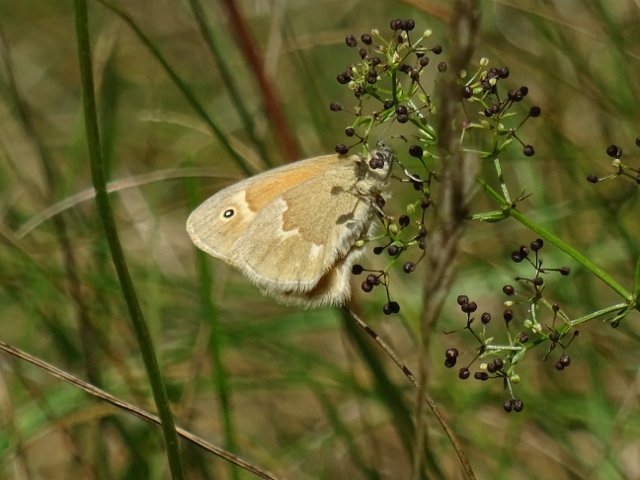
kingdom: Animalia
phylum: Arthropoda
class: Insecta
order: Lepidoptera
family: Nymphalidae
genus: Coenonympha
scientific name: Coenonympha tullia
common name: Large Heath
